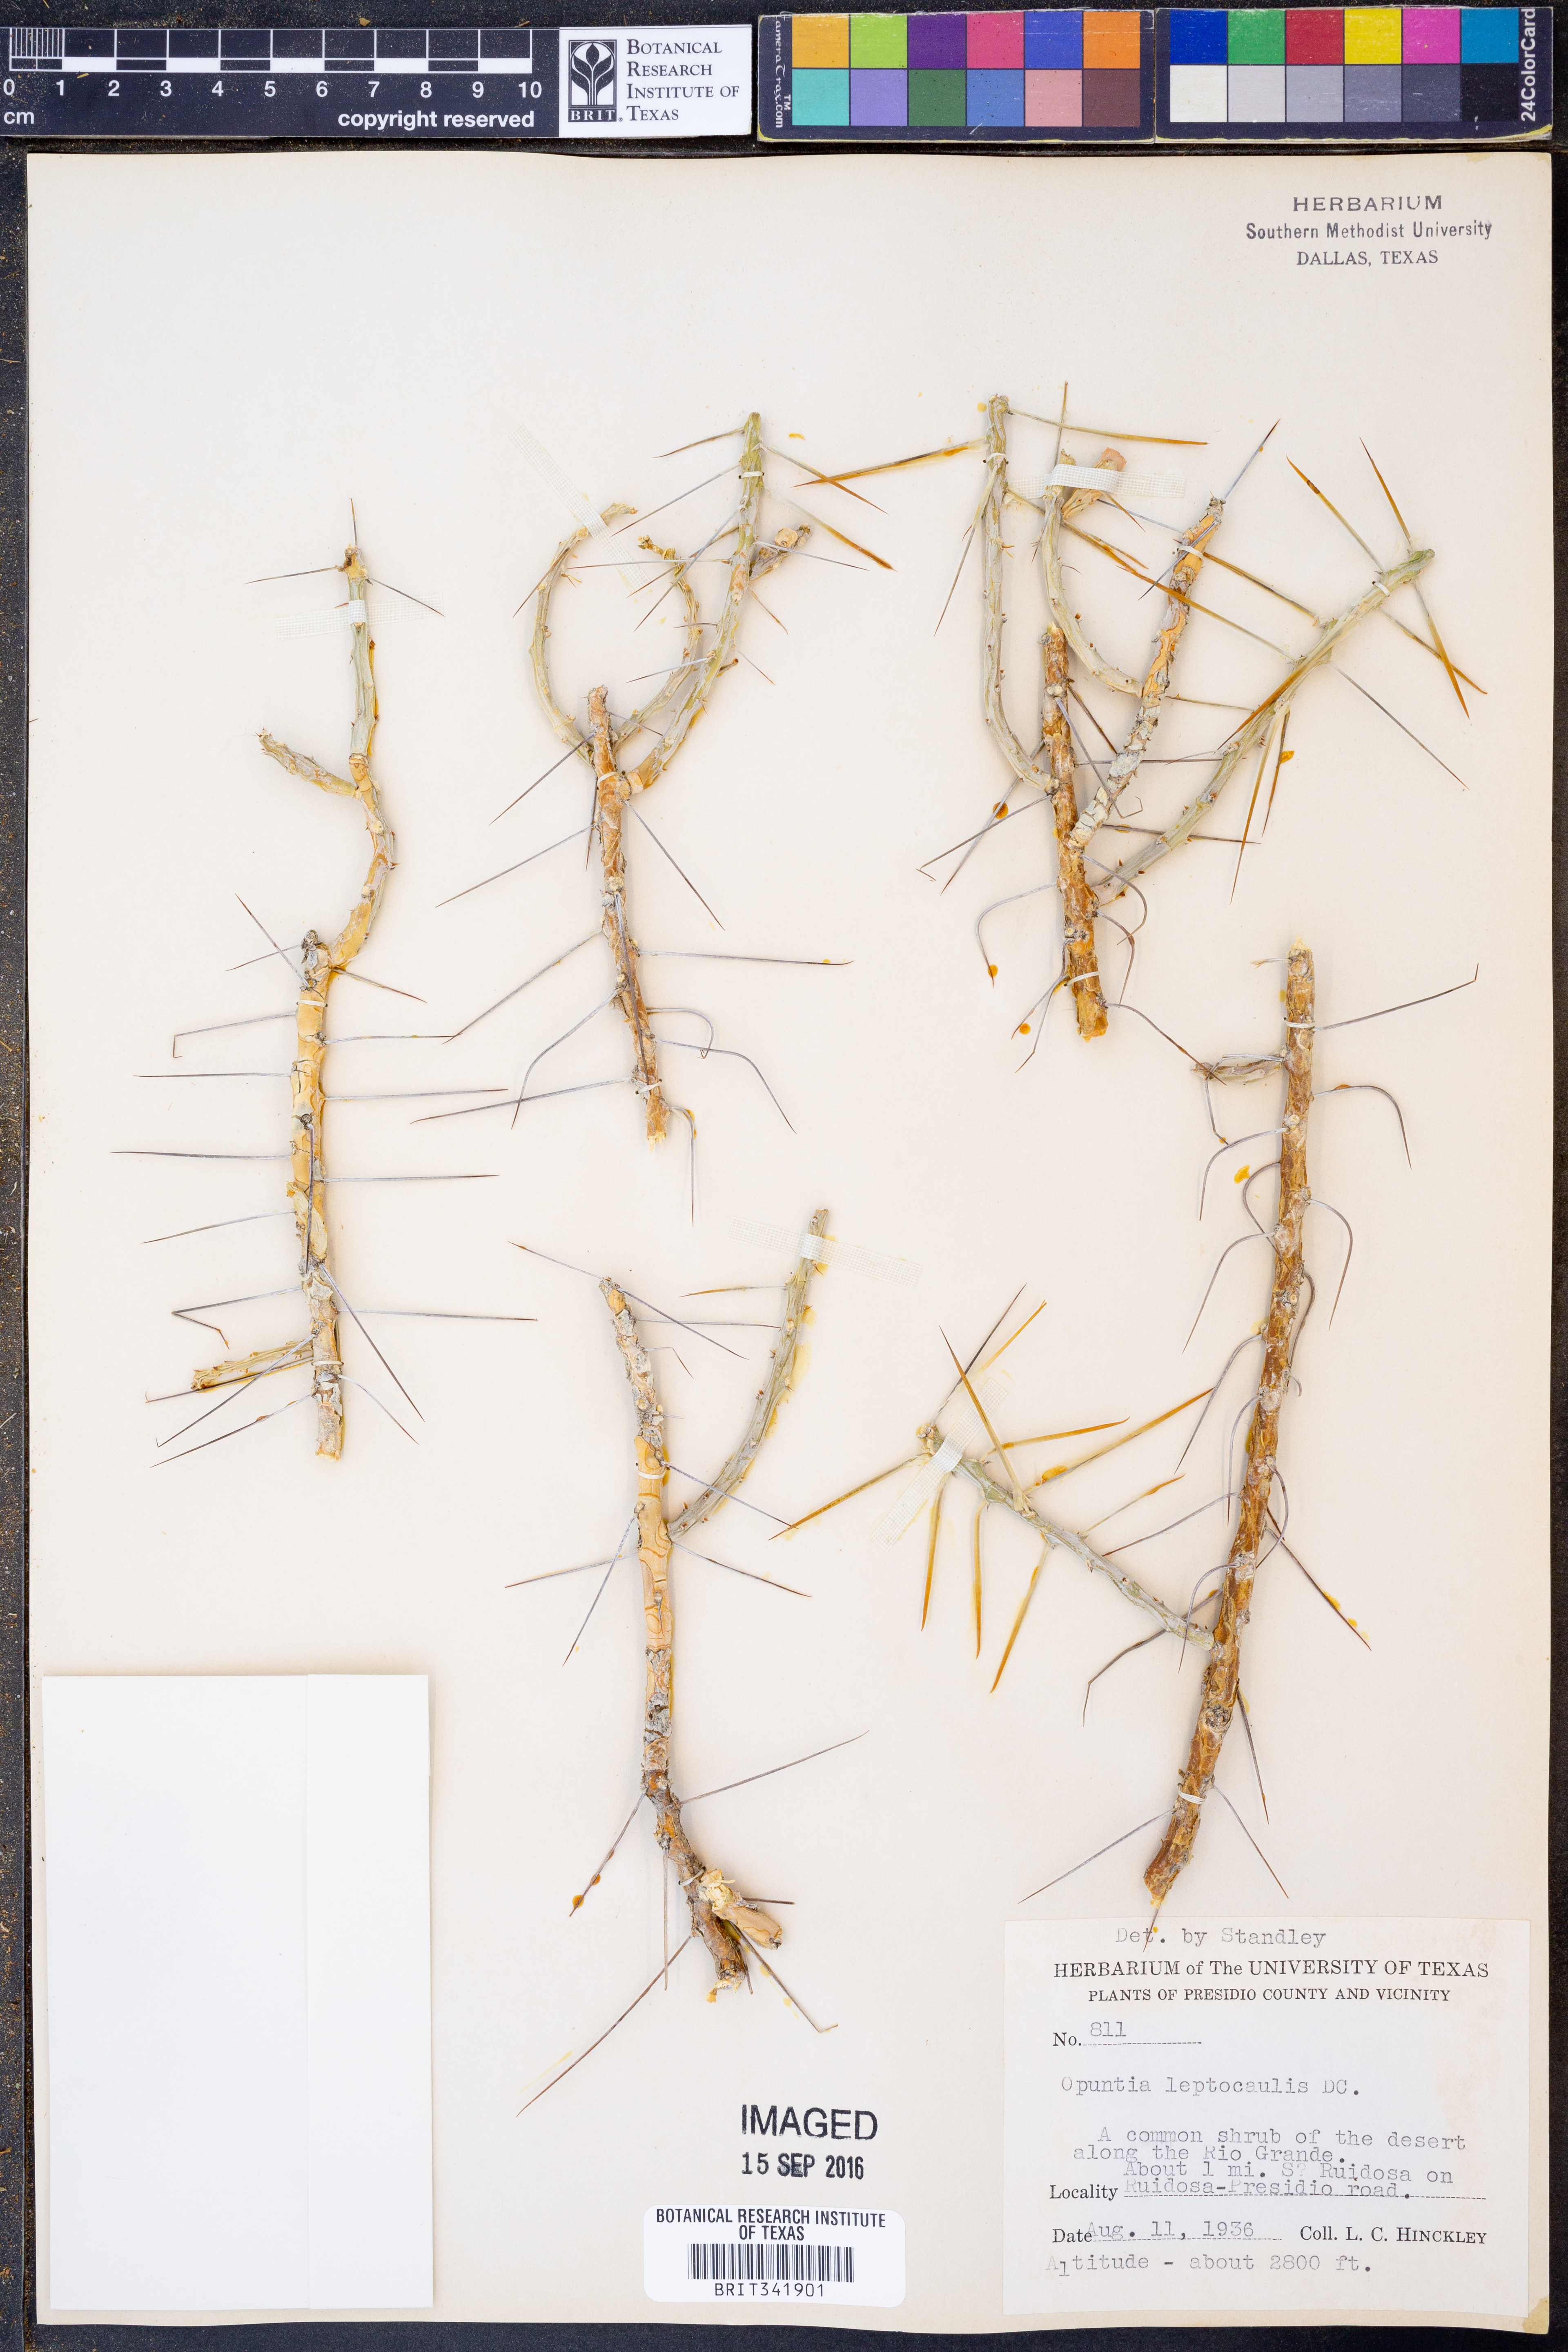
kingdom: Plantae
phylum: Tracheophyta
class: Magnoliopsida
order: Caryophyllales
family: Cactaceae
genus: Cylindropuntia
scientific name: Cylindropuntia leptocaulis
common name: Christmas cactus
